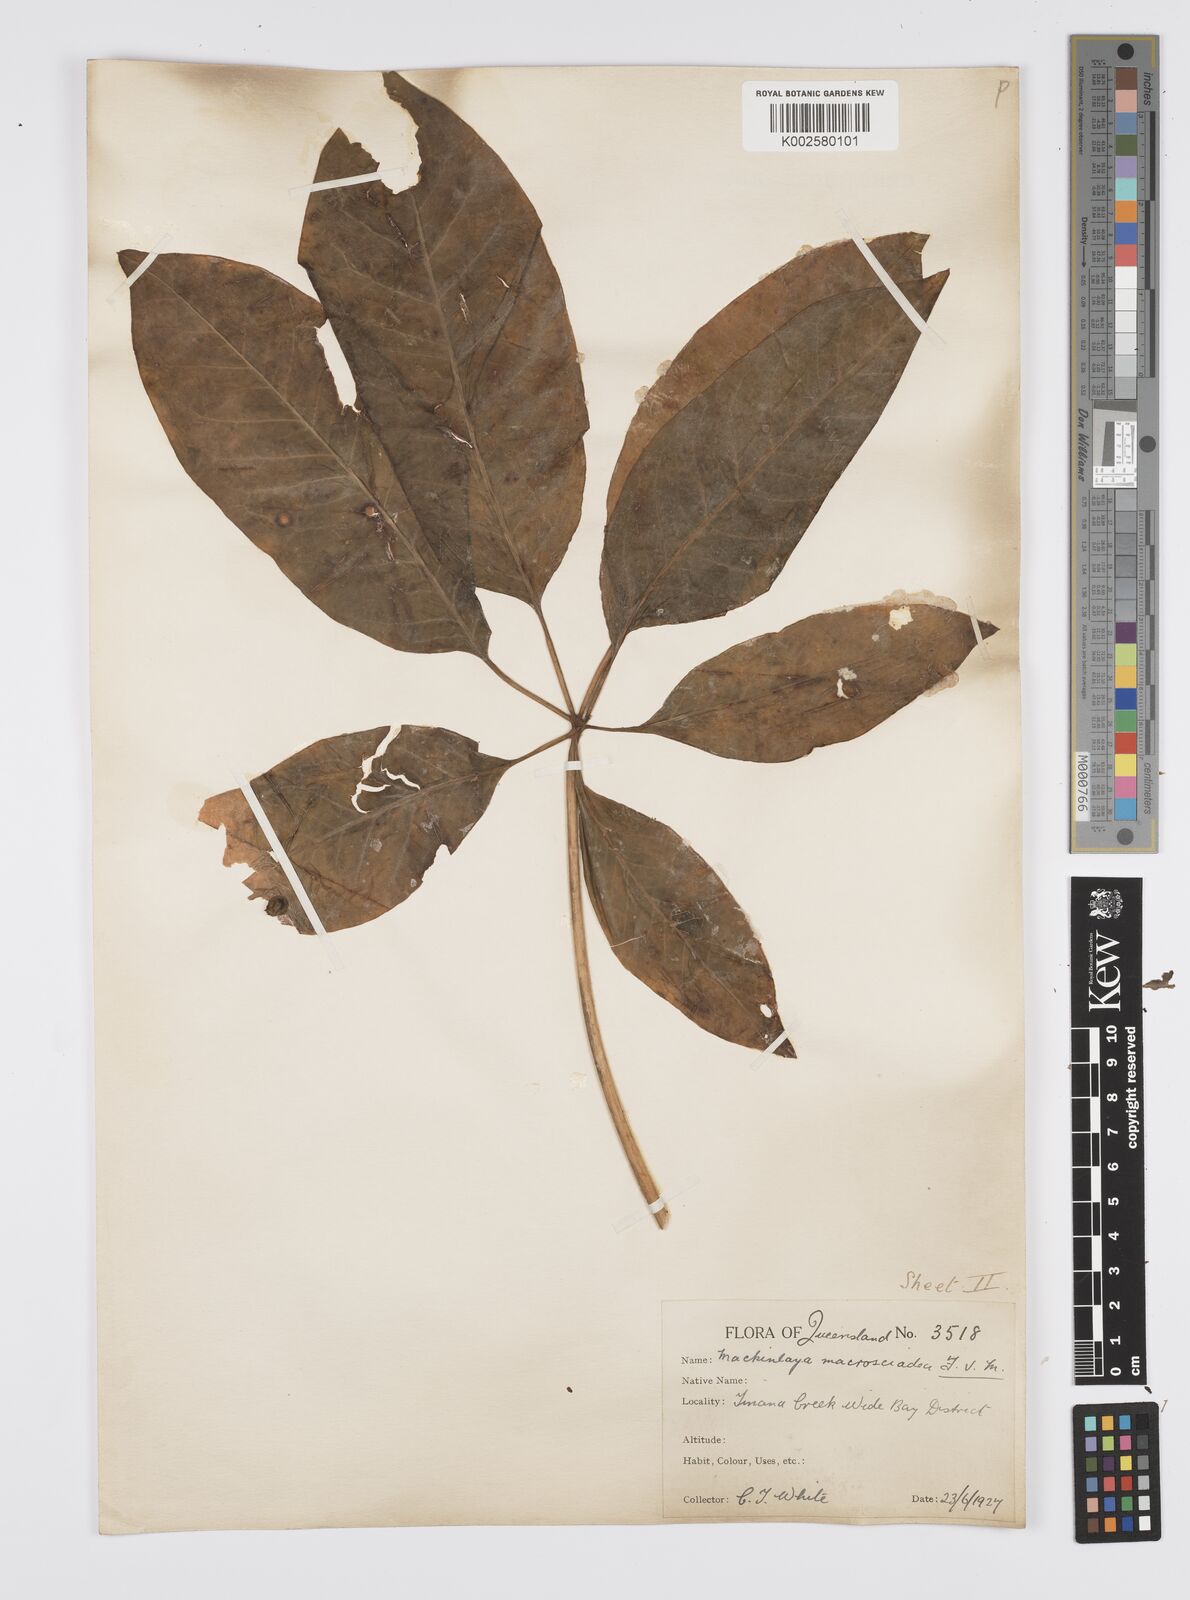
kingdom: Plantae
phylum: Tracheophyta
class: Magnoliopsida
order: Apiales
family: Apiaceae
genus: Mackinlaya
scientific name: Mackinlaya macrosciadea
